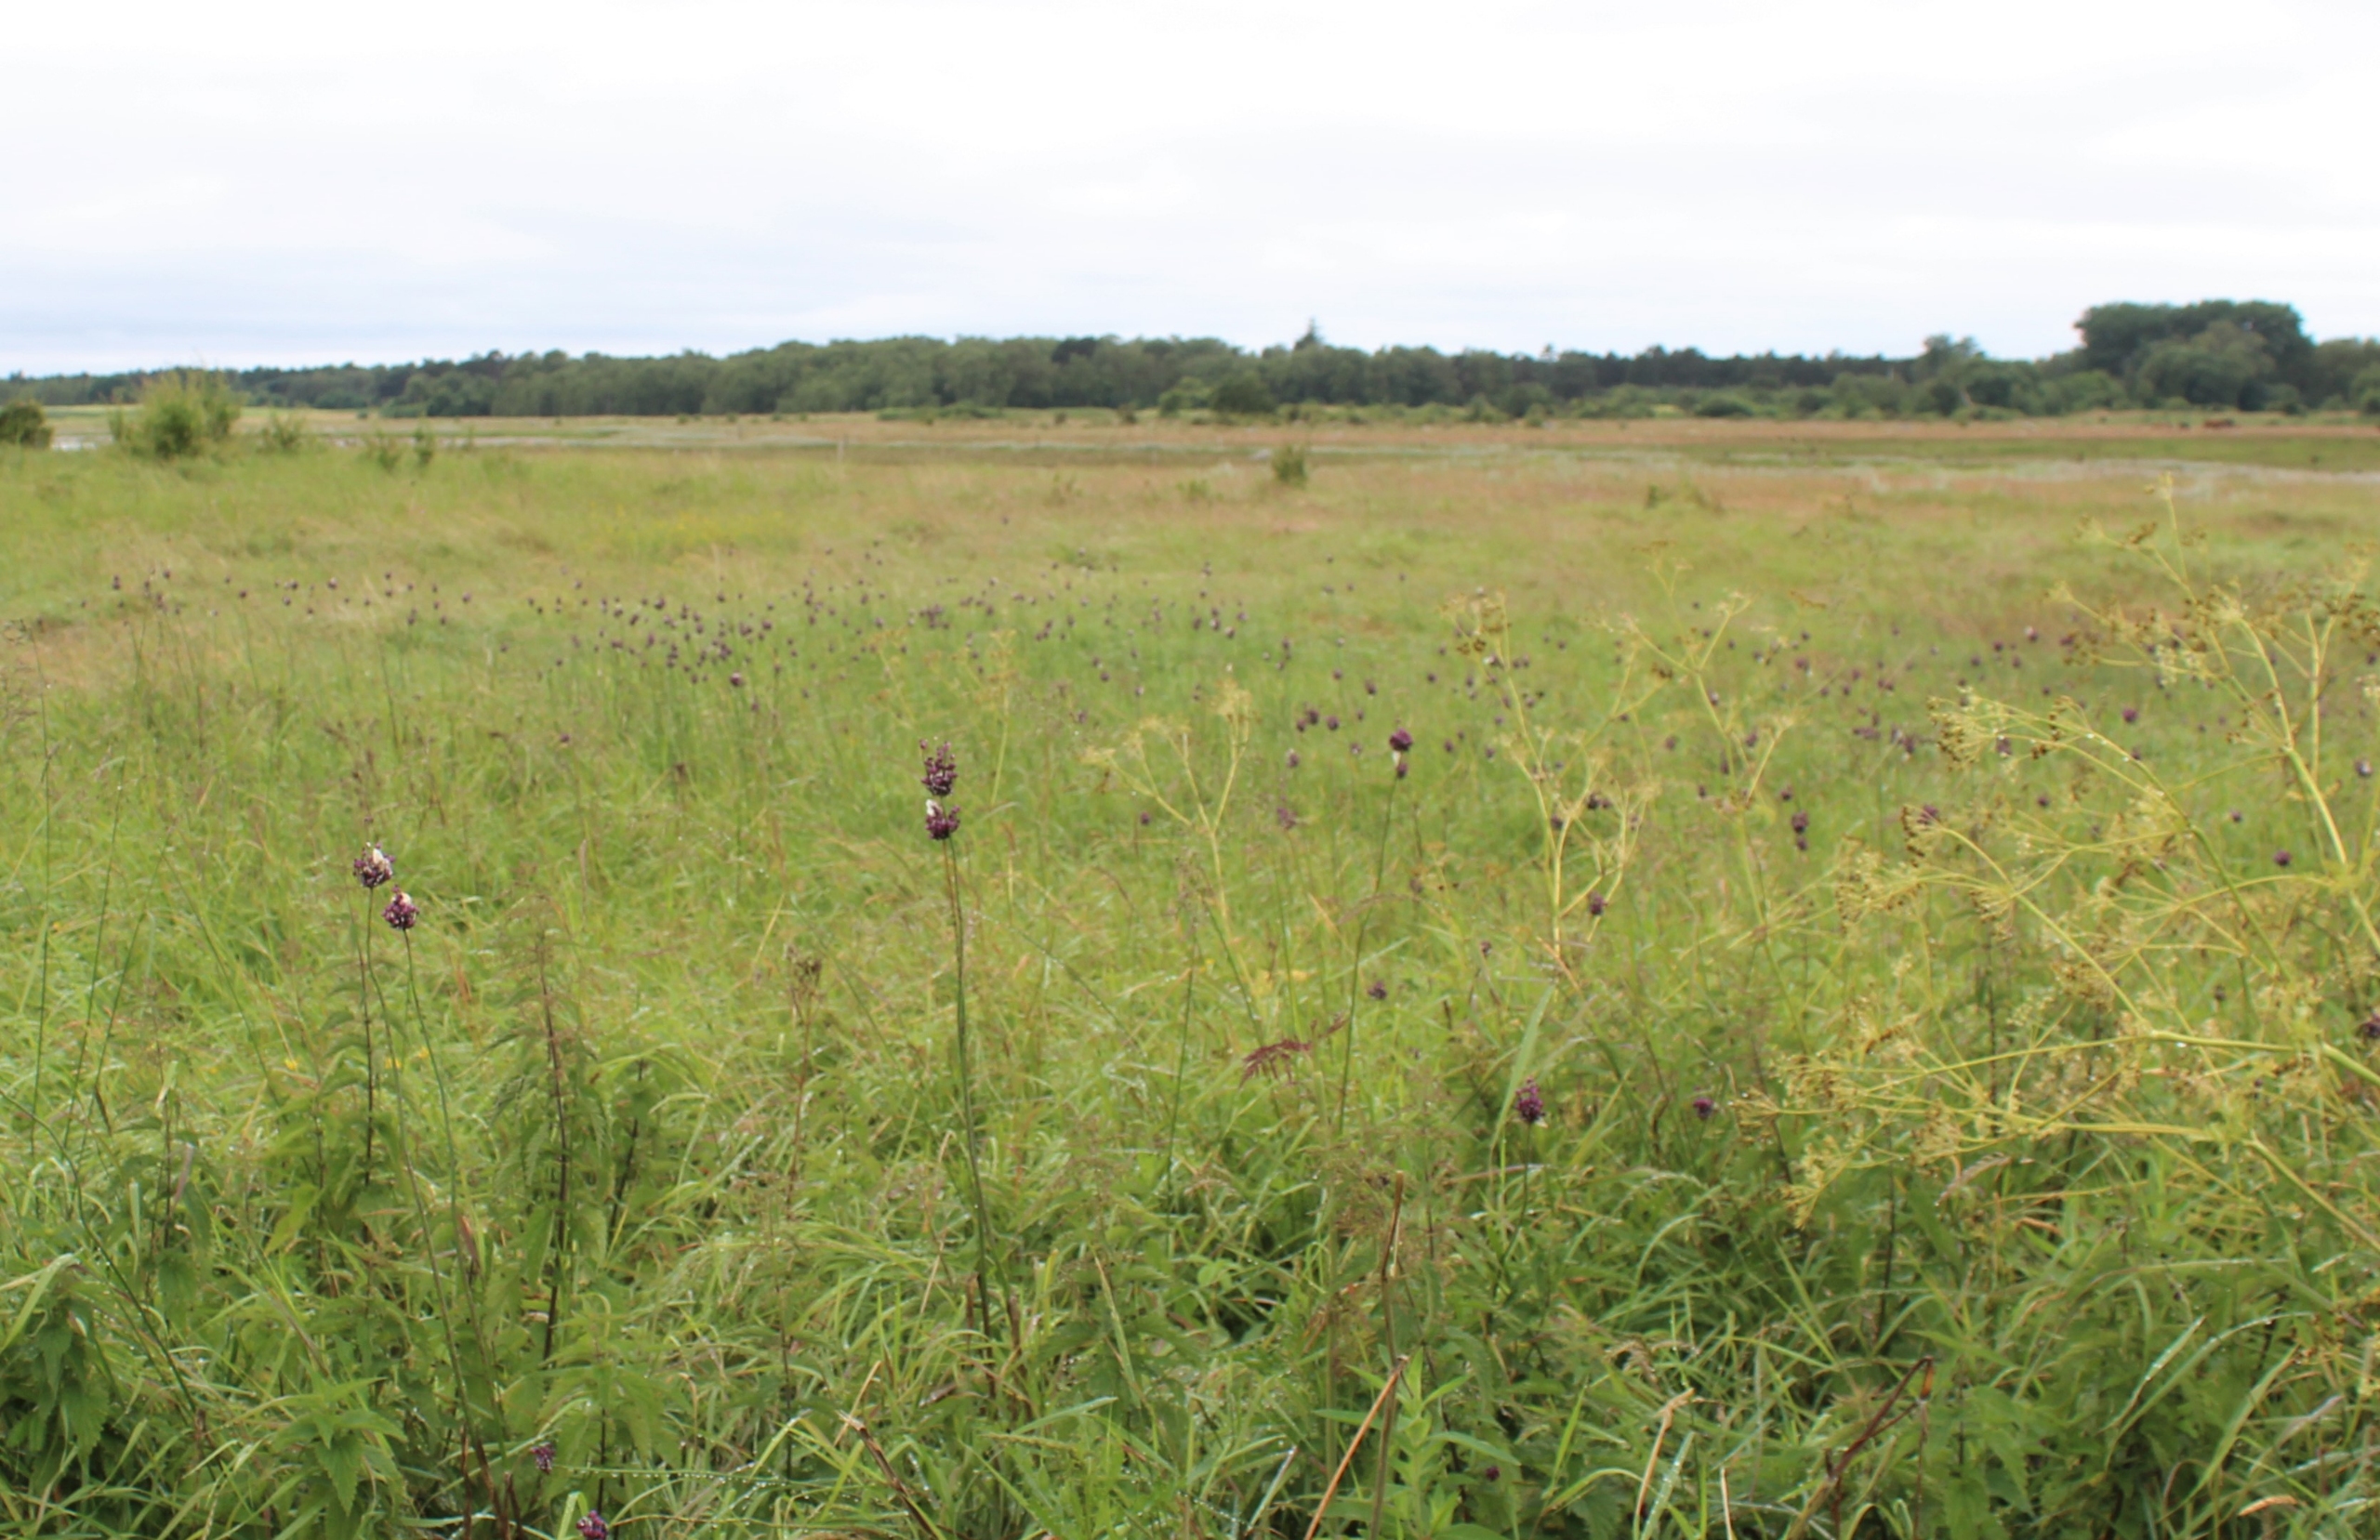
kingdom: Plantae
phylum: Tracheophyta
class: Liliopsida
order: Asparagales
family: Amaryllidaceae
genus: Allium
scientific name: Allium scorodoprasum
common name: Skov-løg
